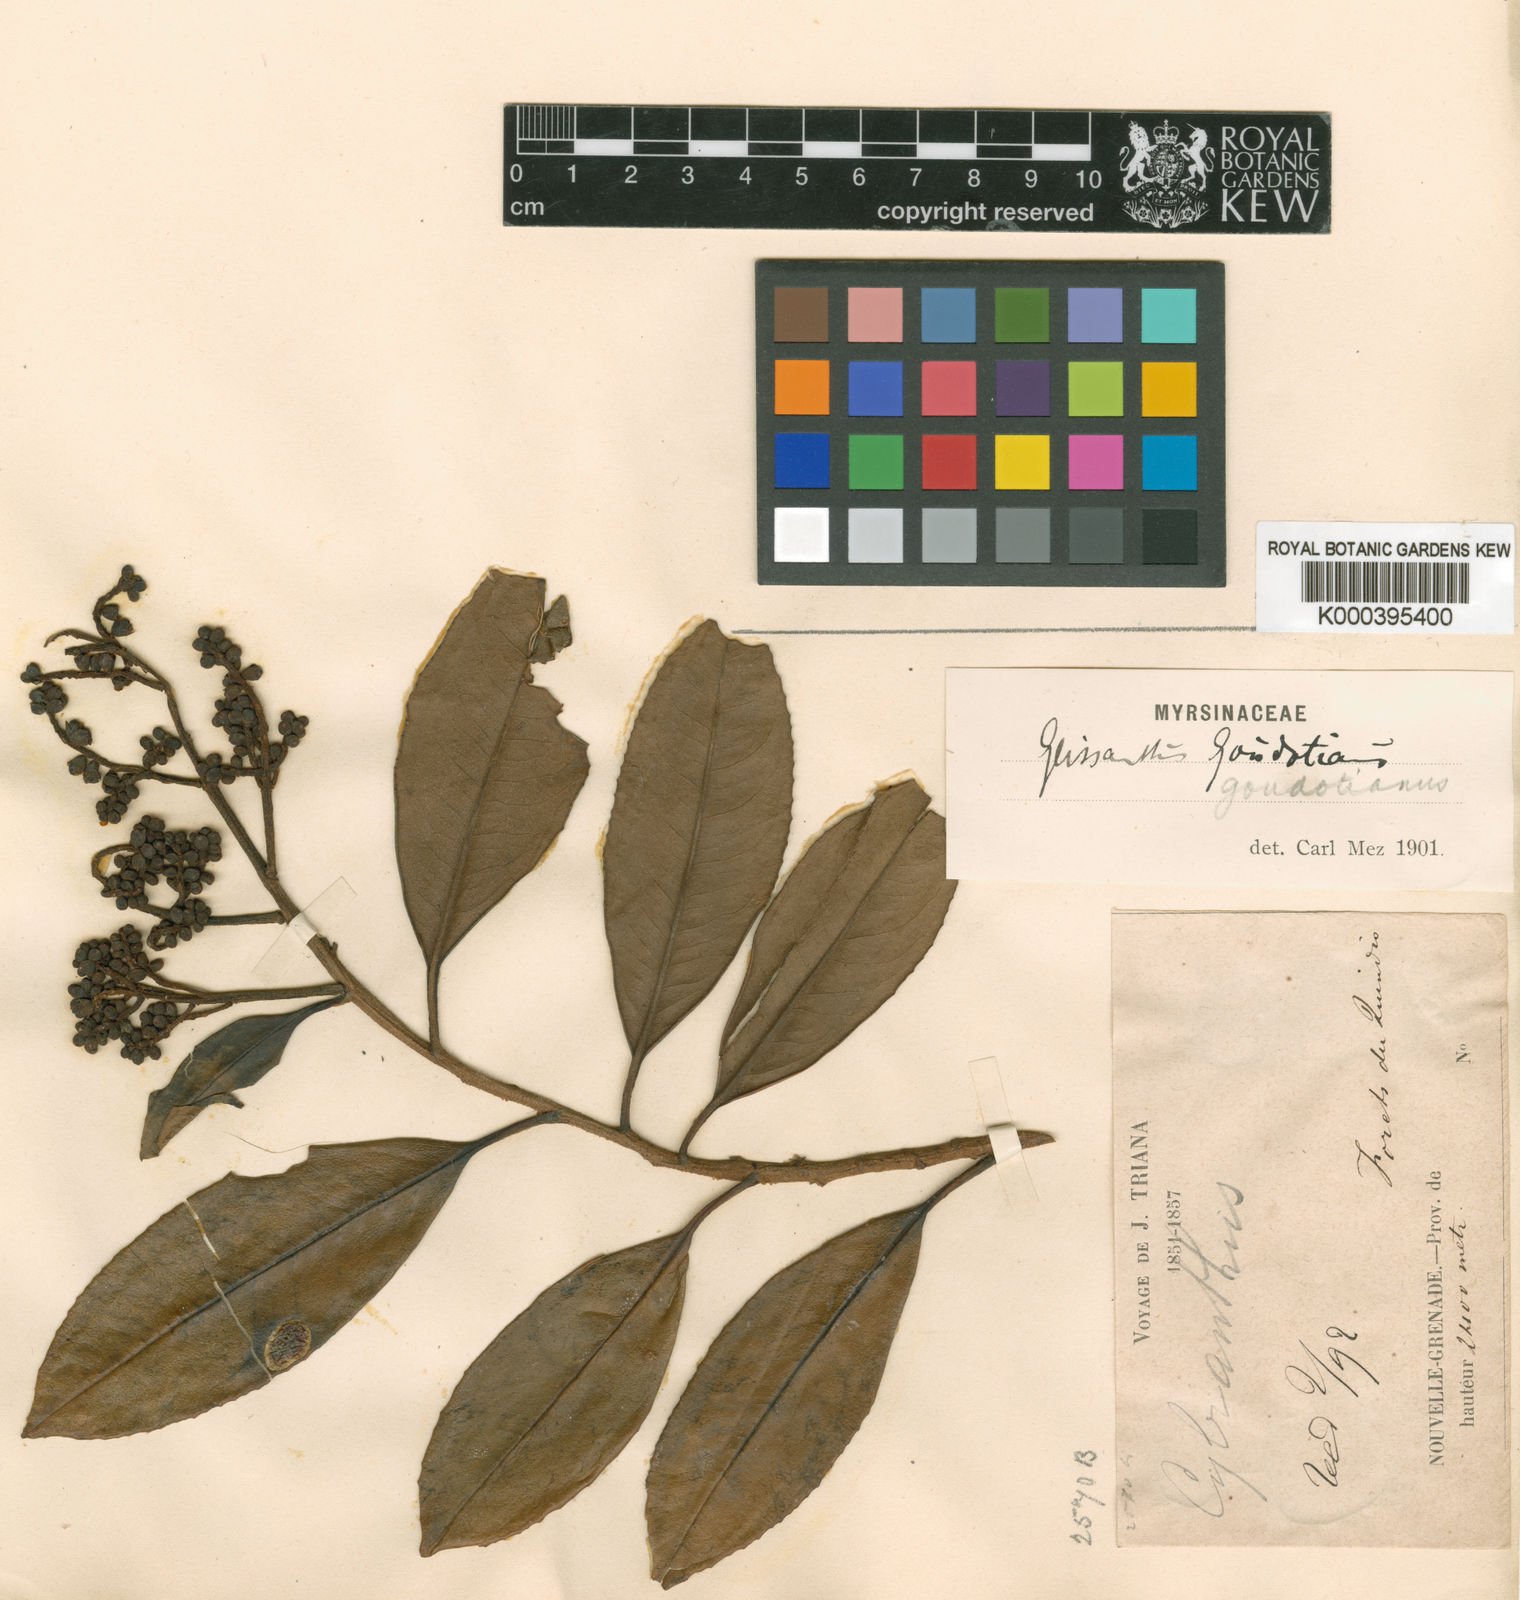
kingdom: Plantae
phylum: Tracheophyta
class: Magnoliopsida
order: Ericales
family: Primulaceae
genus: Geissanthus
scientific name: Geissanthus goudotianus
